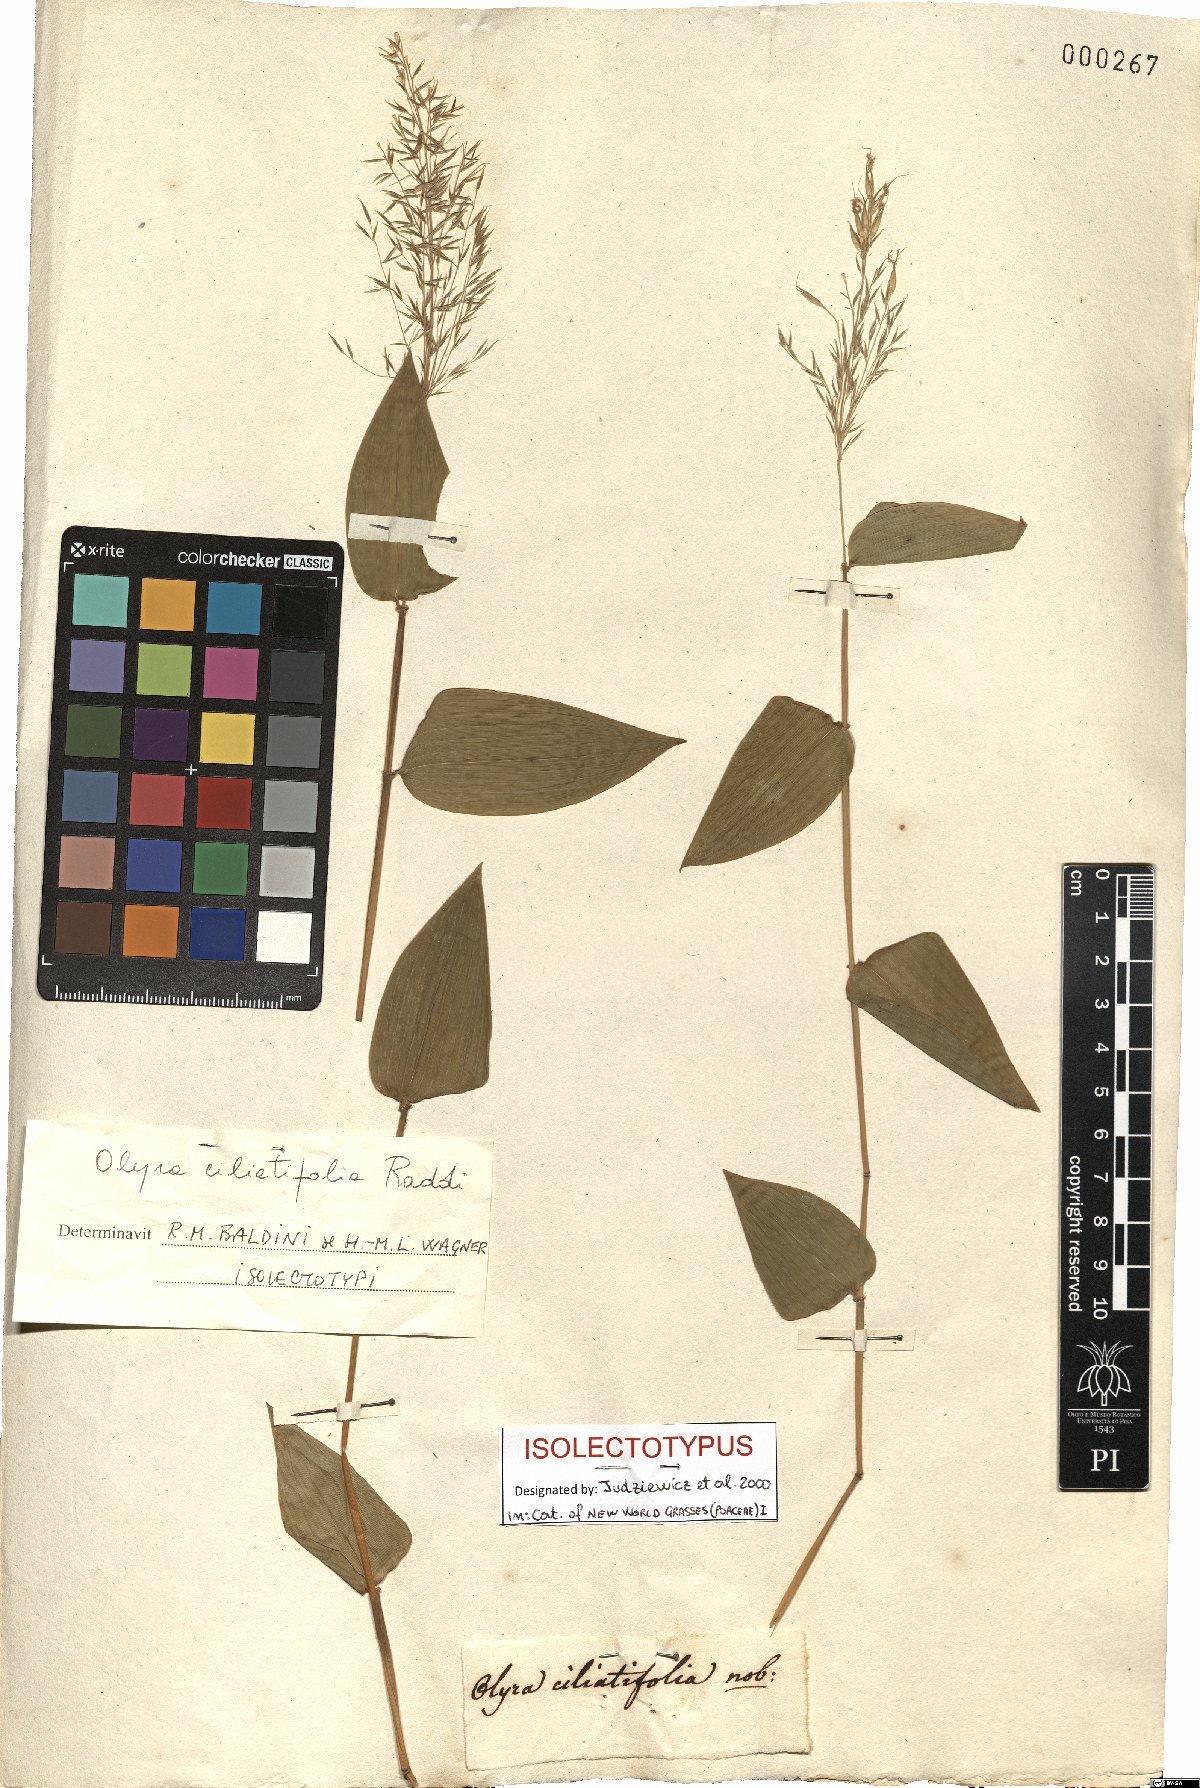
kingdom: Plantae
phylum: Tracheophyta
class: Liliopsida
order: Poales
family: Poaceae
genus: Olyra
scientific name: Olyra ciliatifolia
